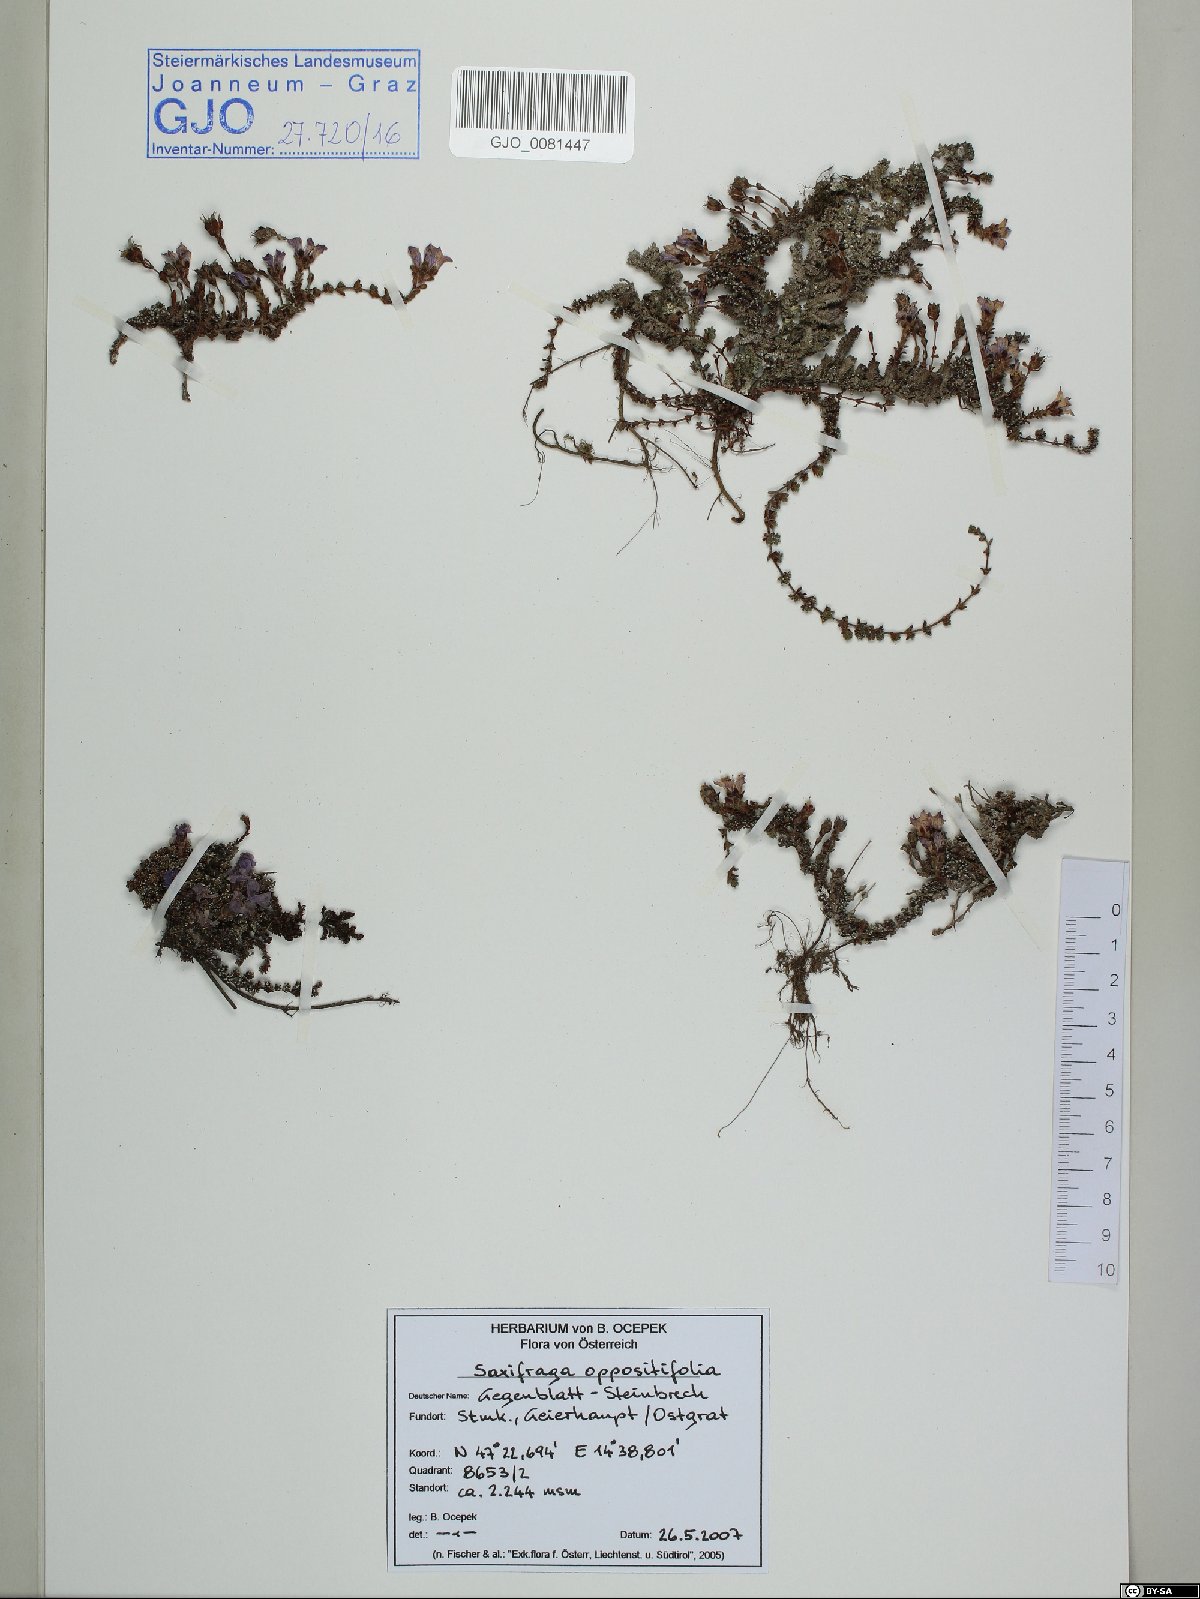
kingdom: Plantae
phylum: Tracheophyta
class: Magnoliopsida
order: Saxifragales
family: Saxifragaceae
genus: Saxifraga
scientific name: Saxifraga oppositifolia
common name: Purple saxifrage
